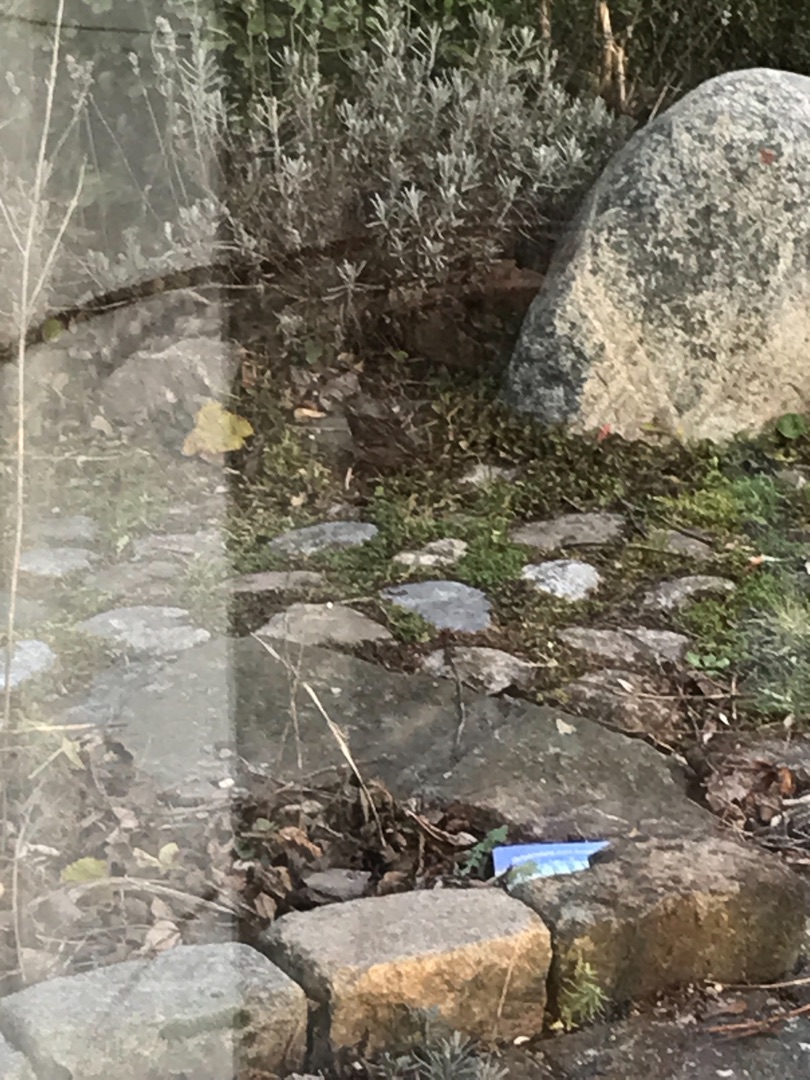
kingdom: Animalia
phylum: Chordata
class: Aves
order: Passeriformes
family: Passeridae
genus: Passer
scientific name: Passer montanus
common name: Skovspurv
